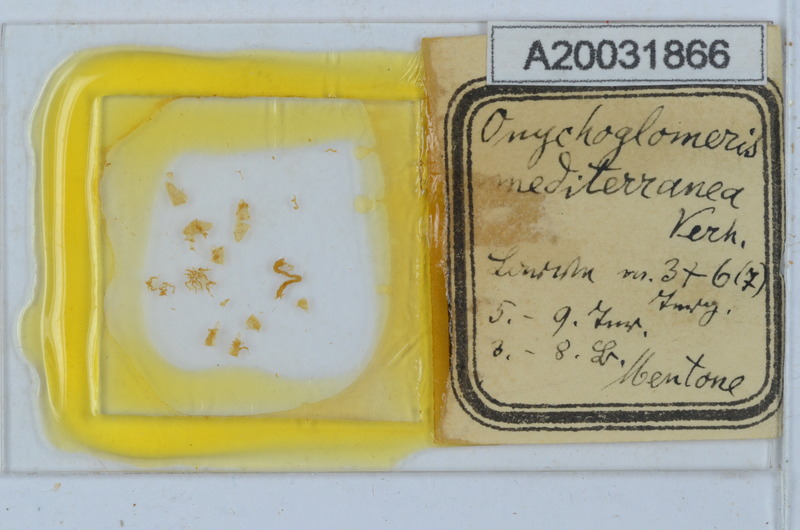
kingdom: Animalia
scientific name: Animalia
